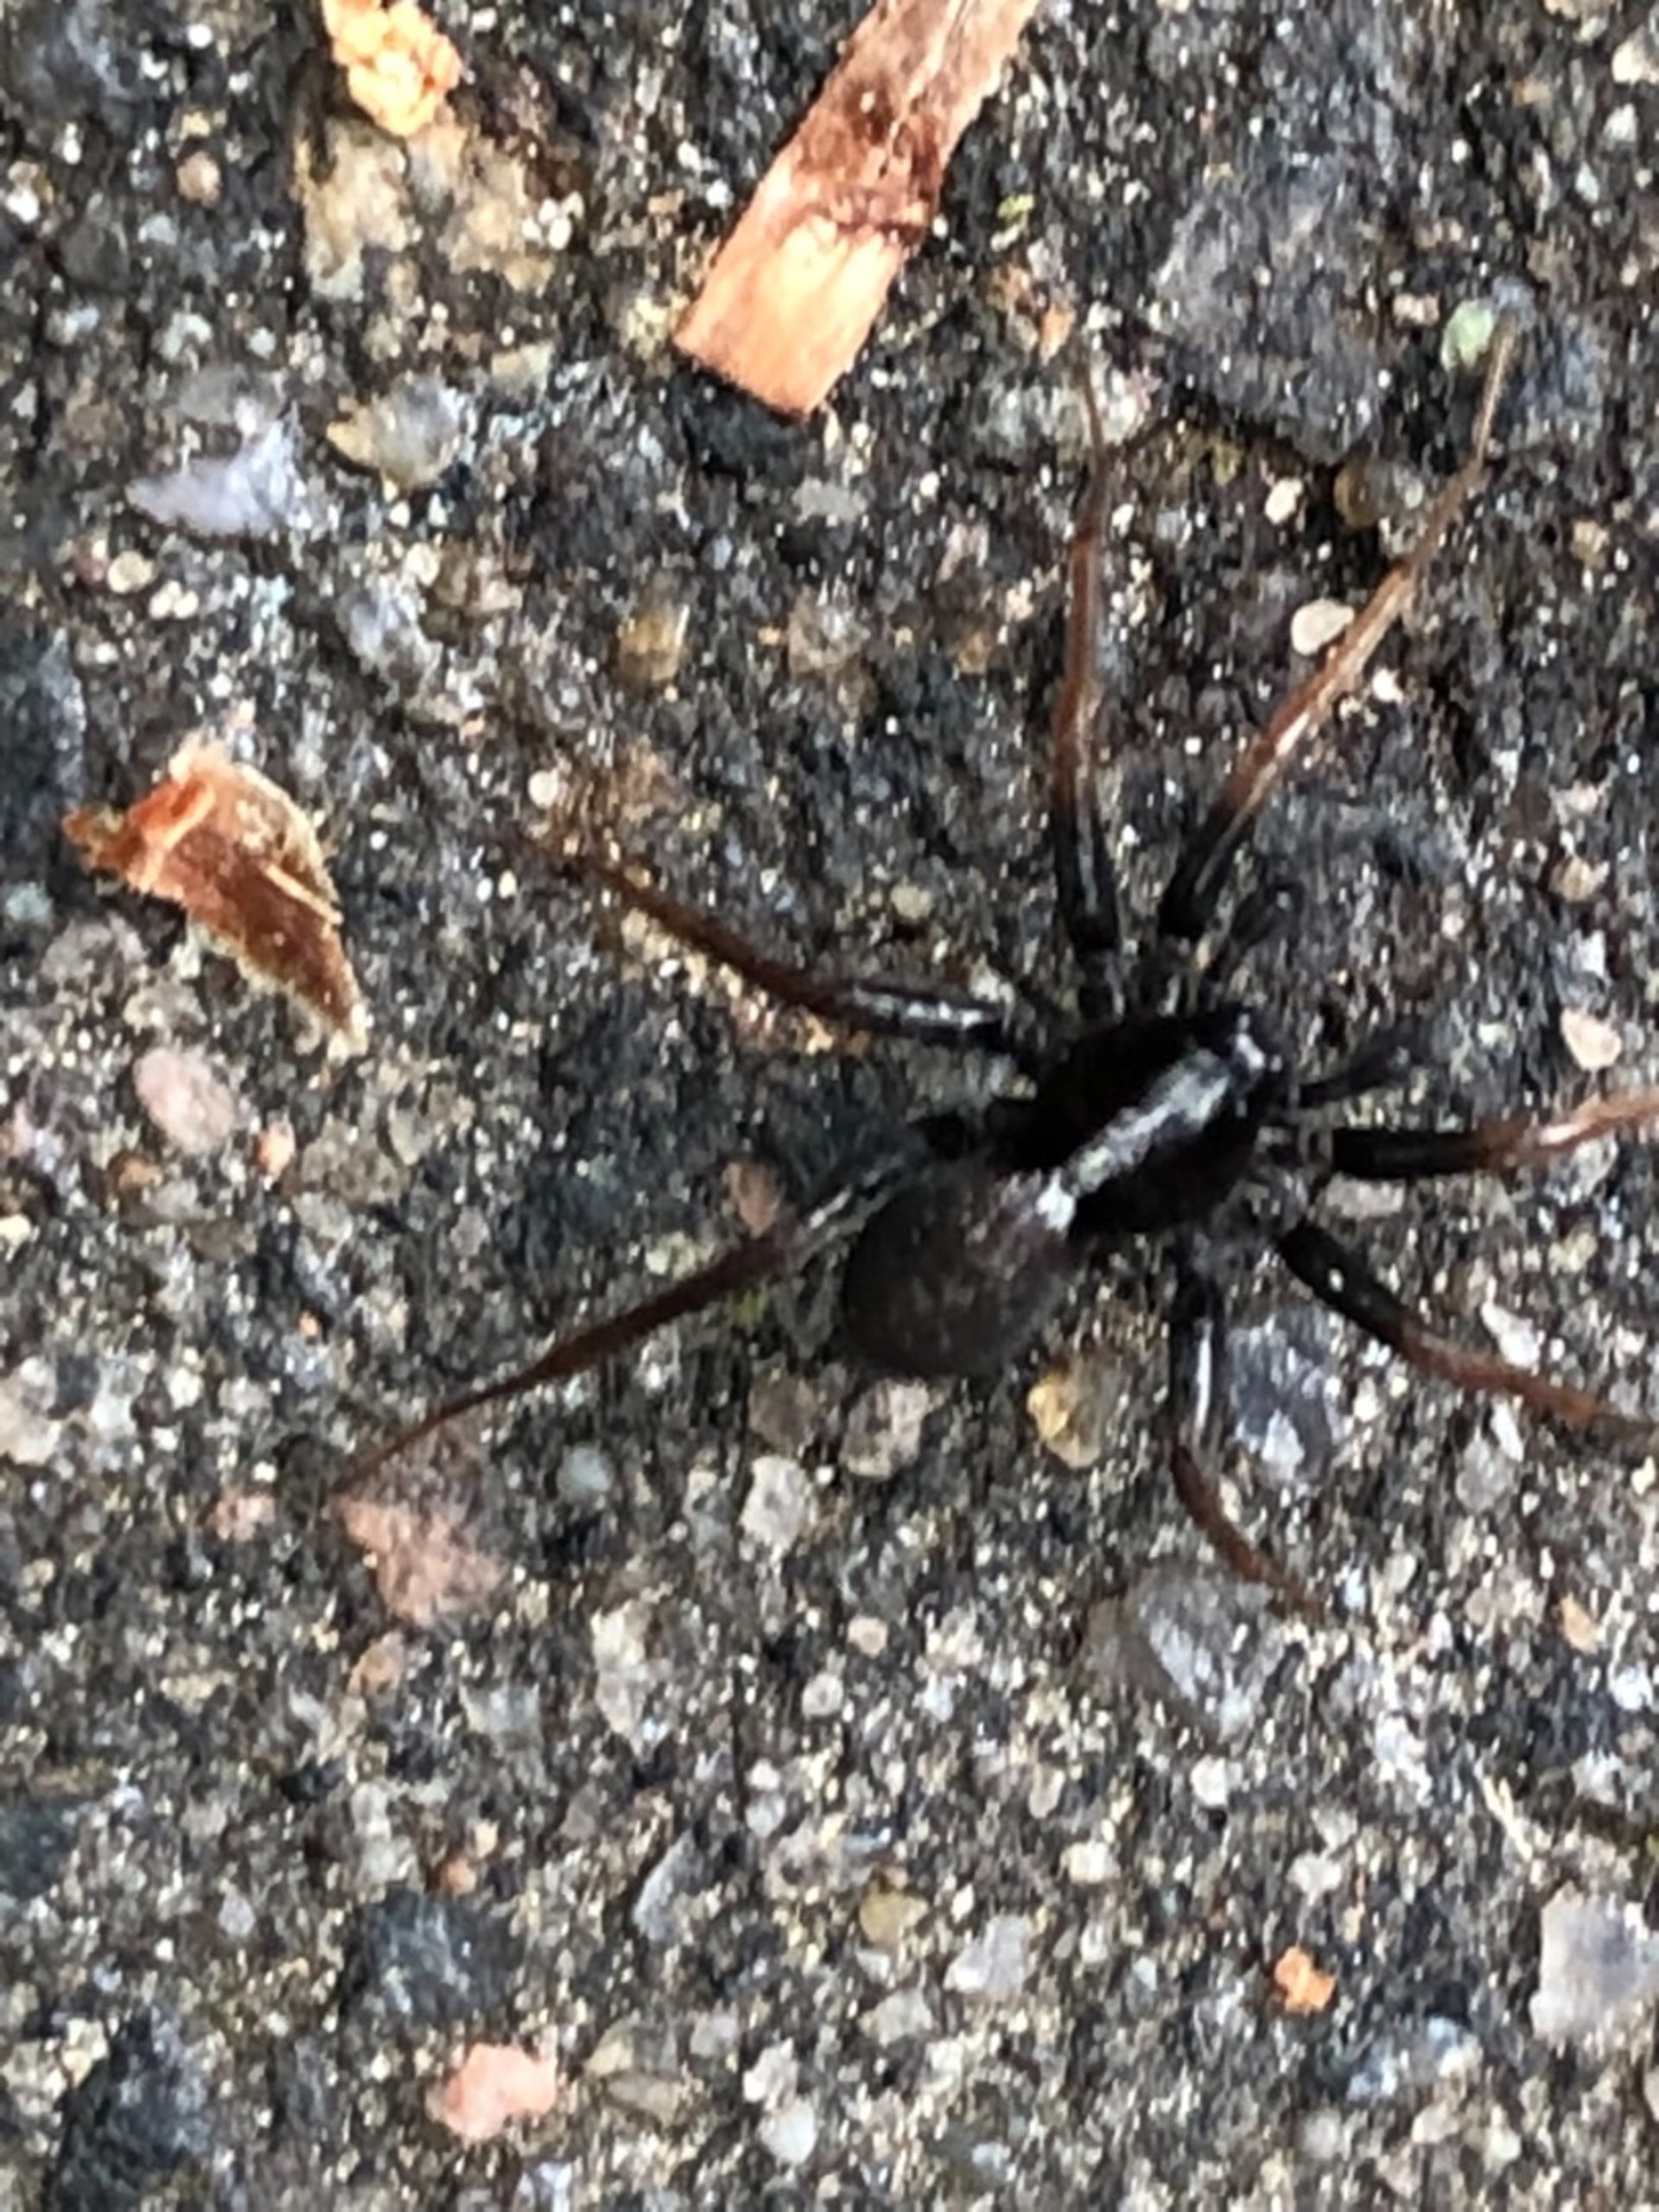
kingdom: Animalia
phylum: Arthropoda
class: Arachnida
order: Araneae
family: Lycosidae
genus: Pardosa
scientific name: Pardosa
